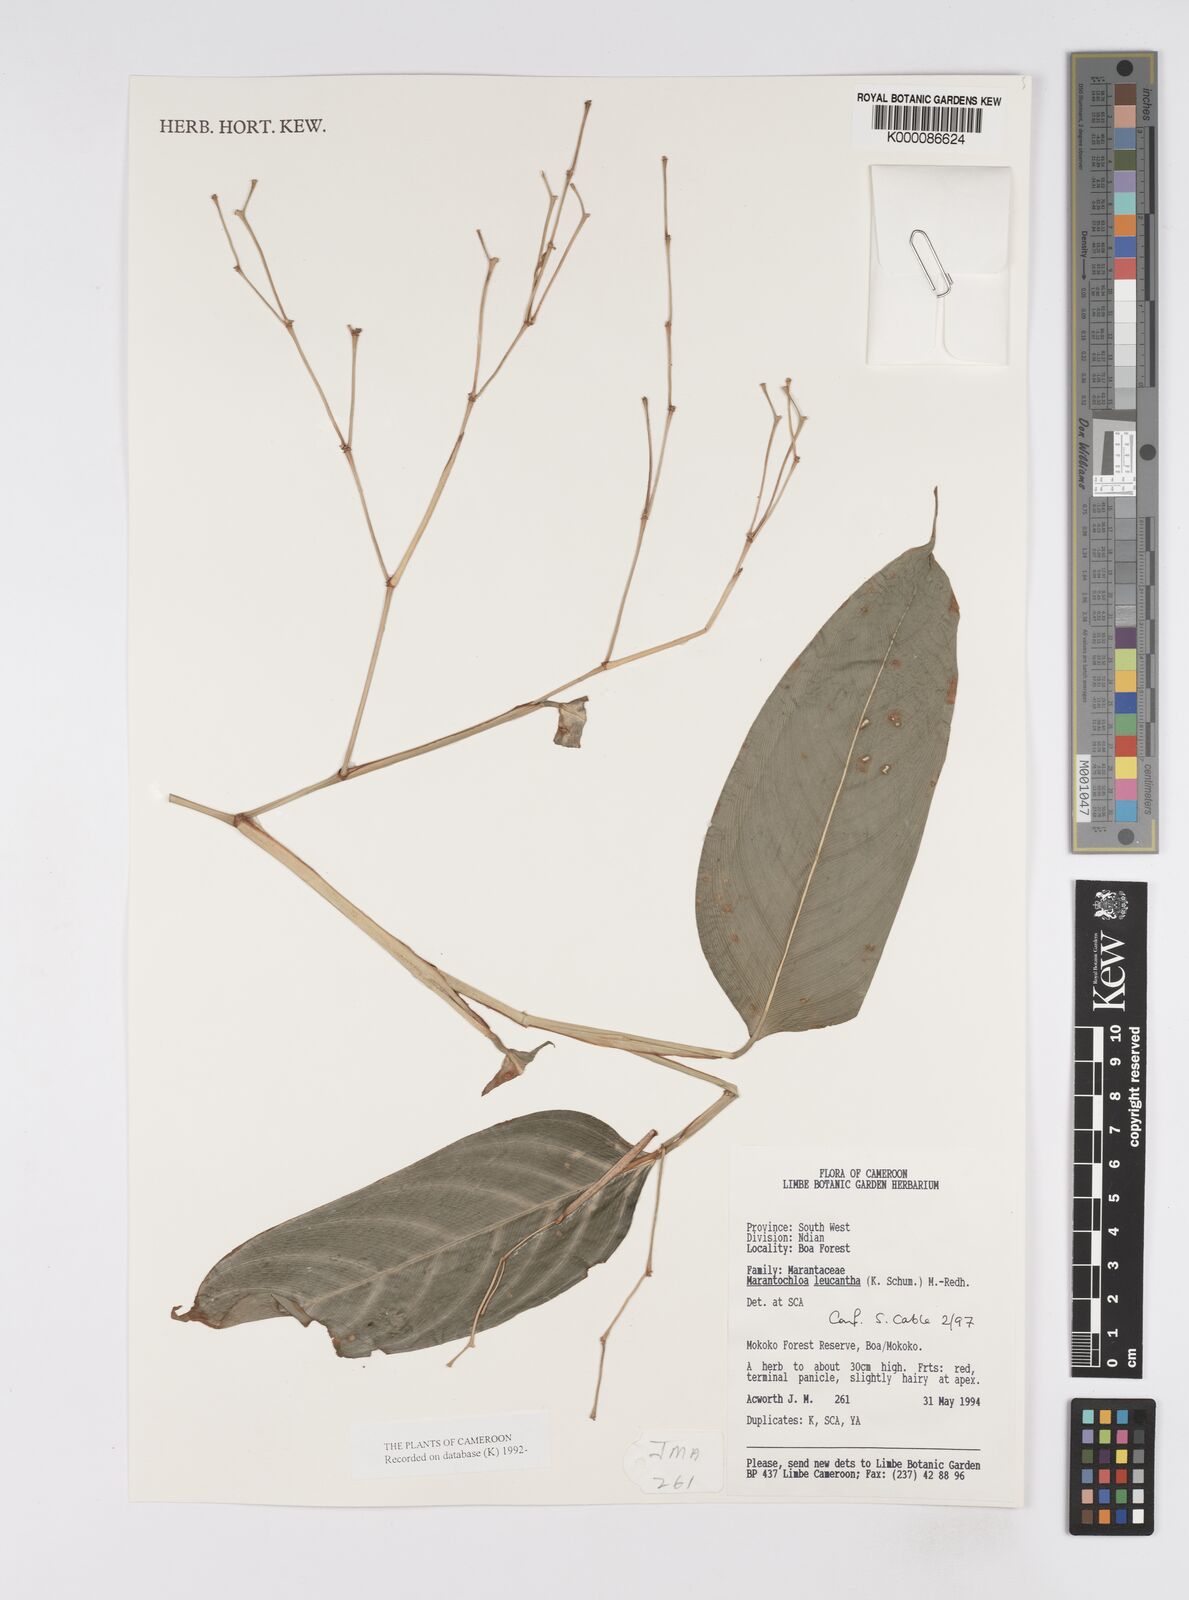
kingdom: Plantae
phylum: Tracheophyta
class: Liliopsida
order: Zingiberales
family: Marantaceae
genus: Marantochloa
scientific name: Marantochloa leucantha
